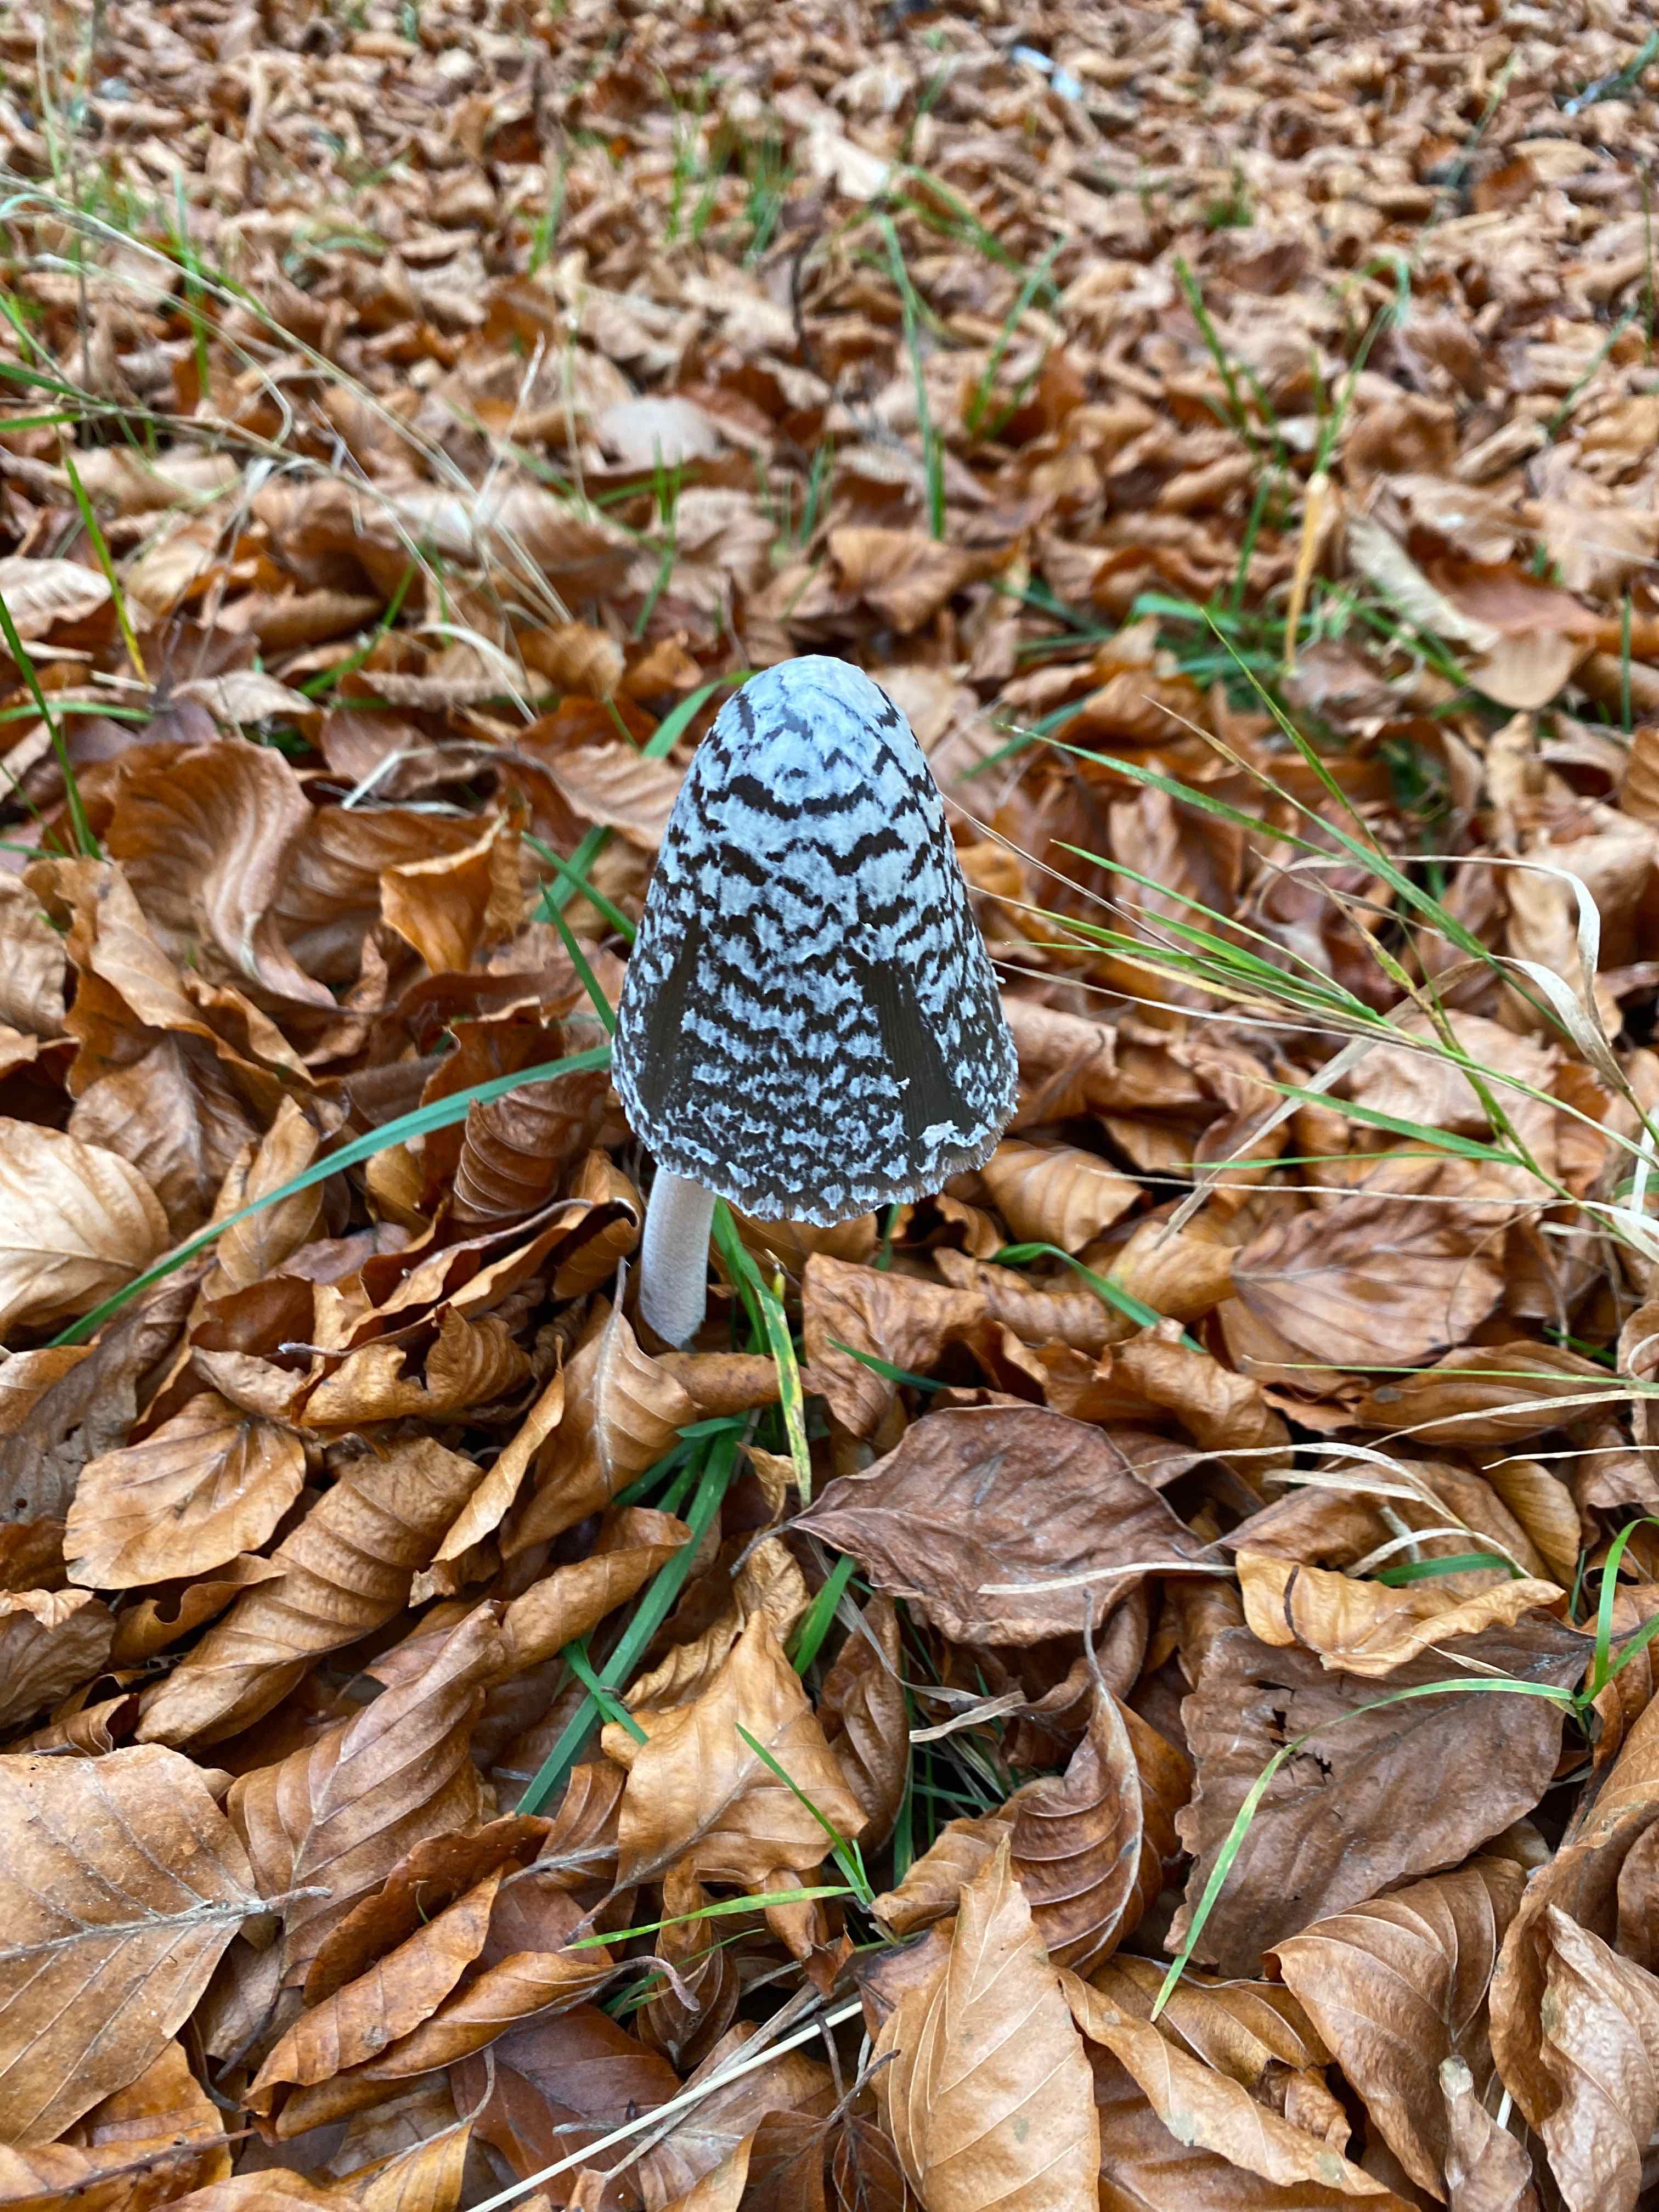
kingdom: Fungi
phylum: Basidiomycota
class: Agaricomycetes
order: Agaricales
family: Psathyrellaceae
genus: Coprinopsis
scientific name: Coprinopsis picacea
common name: skade-blækhat
